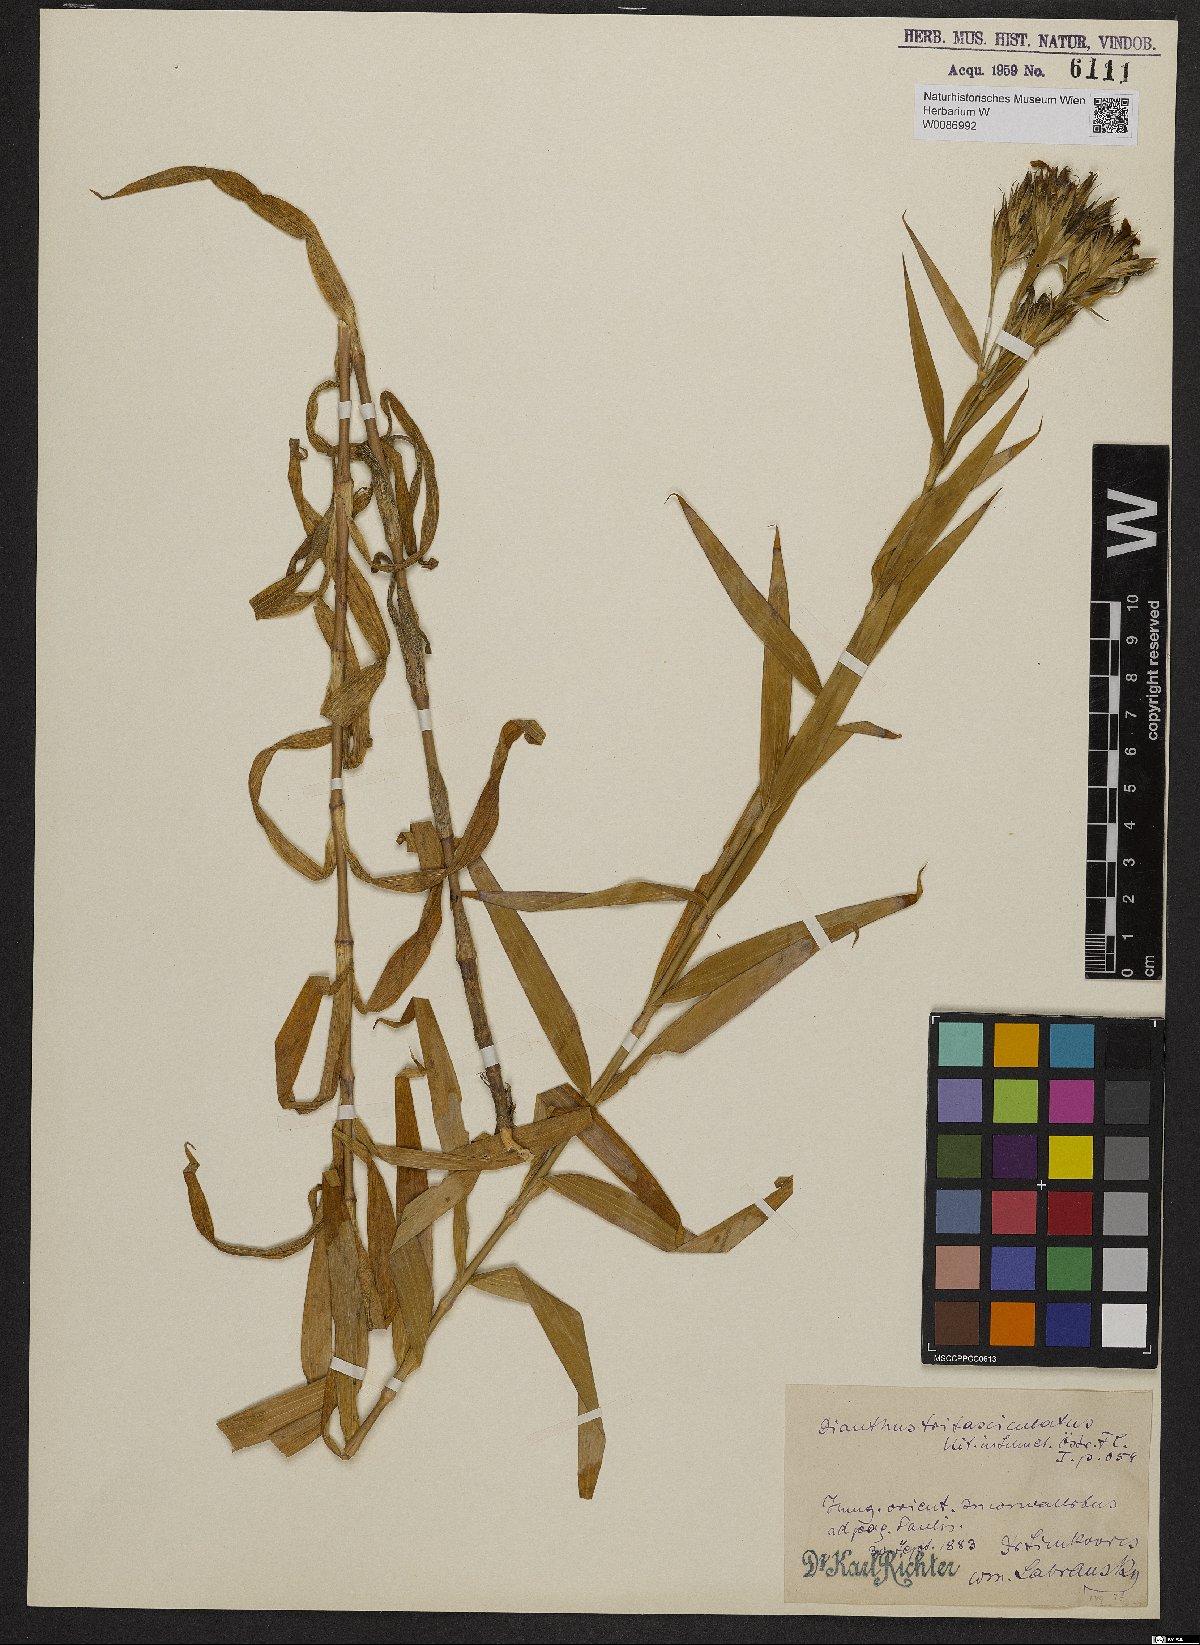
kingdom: Plantae
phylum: Tracheophyta
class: Magnoliopsida
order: Caryophyllales
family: Caryophyllaceae
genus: Dianthus
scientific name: Dianthus trifasciculatus
